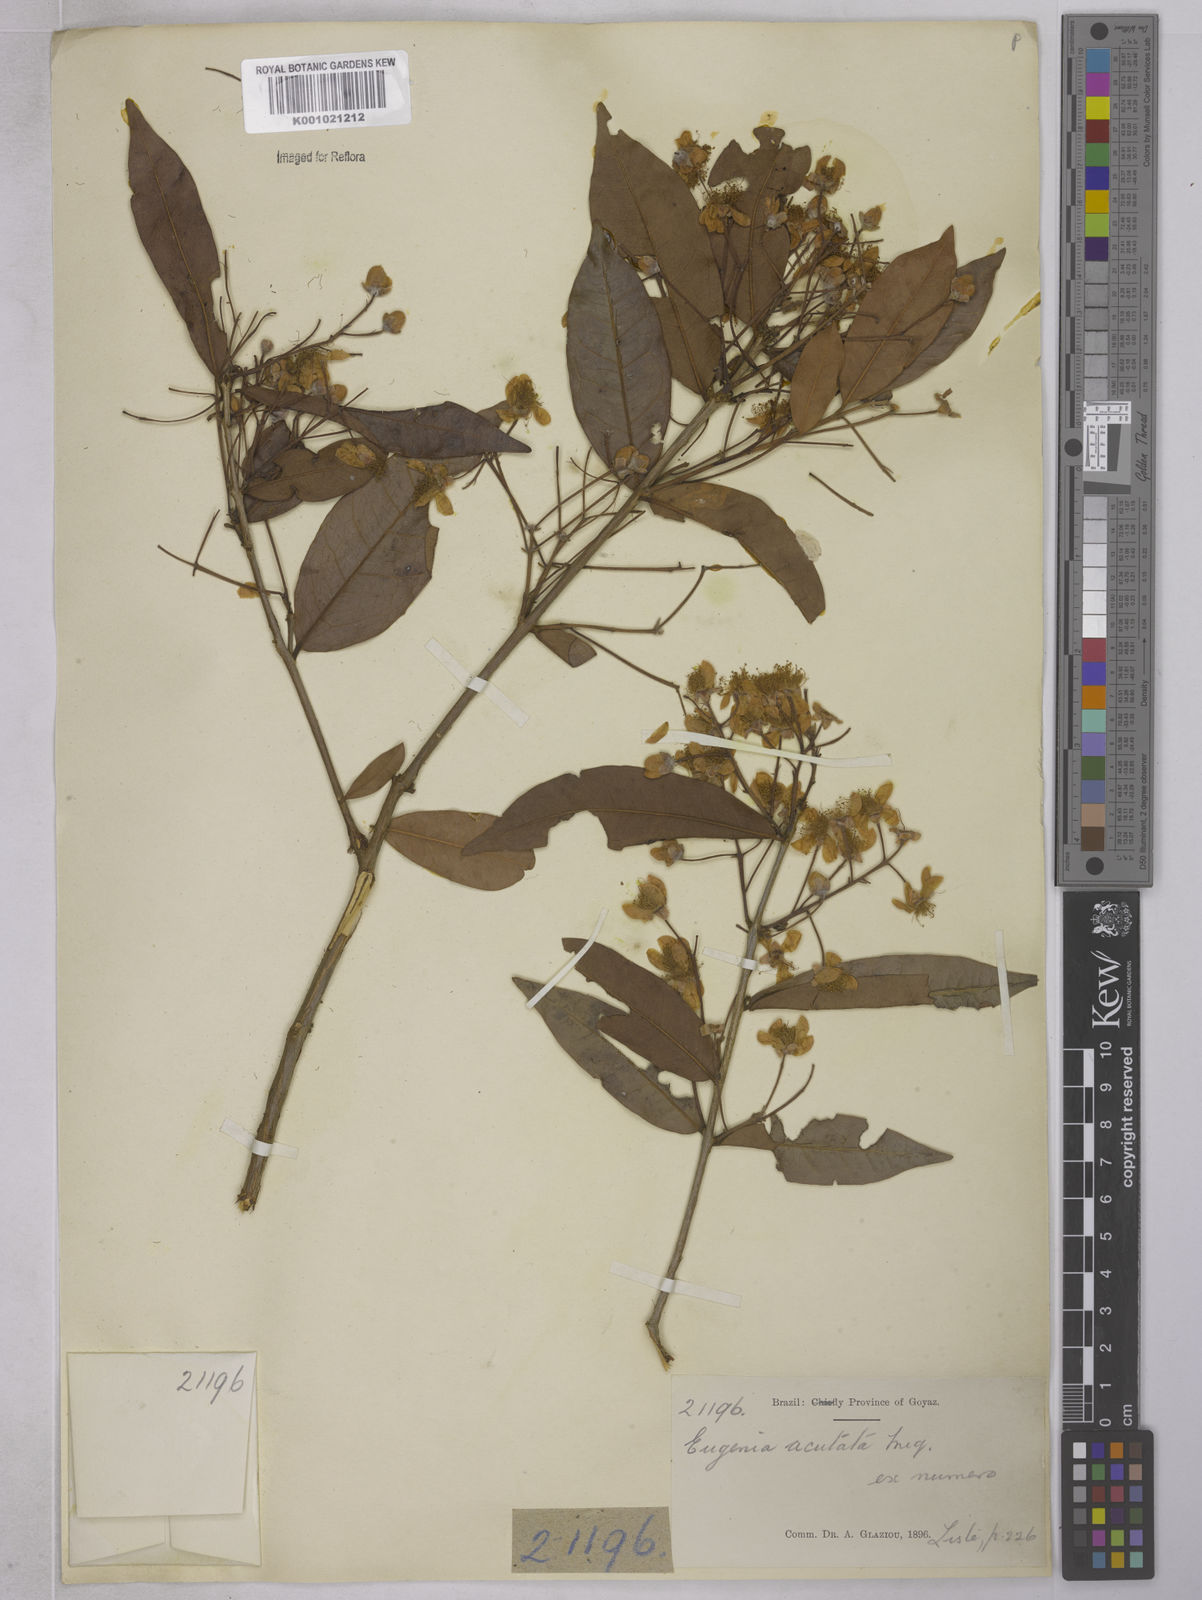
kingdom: Plantae
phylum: Tracheophyta
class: Magnoliopsida
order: Myrtales
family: Myrtaceae
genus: Eugenia
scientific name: Eugenia myrcianthes
